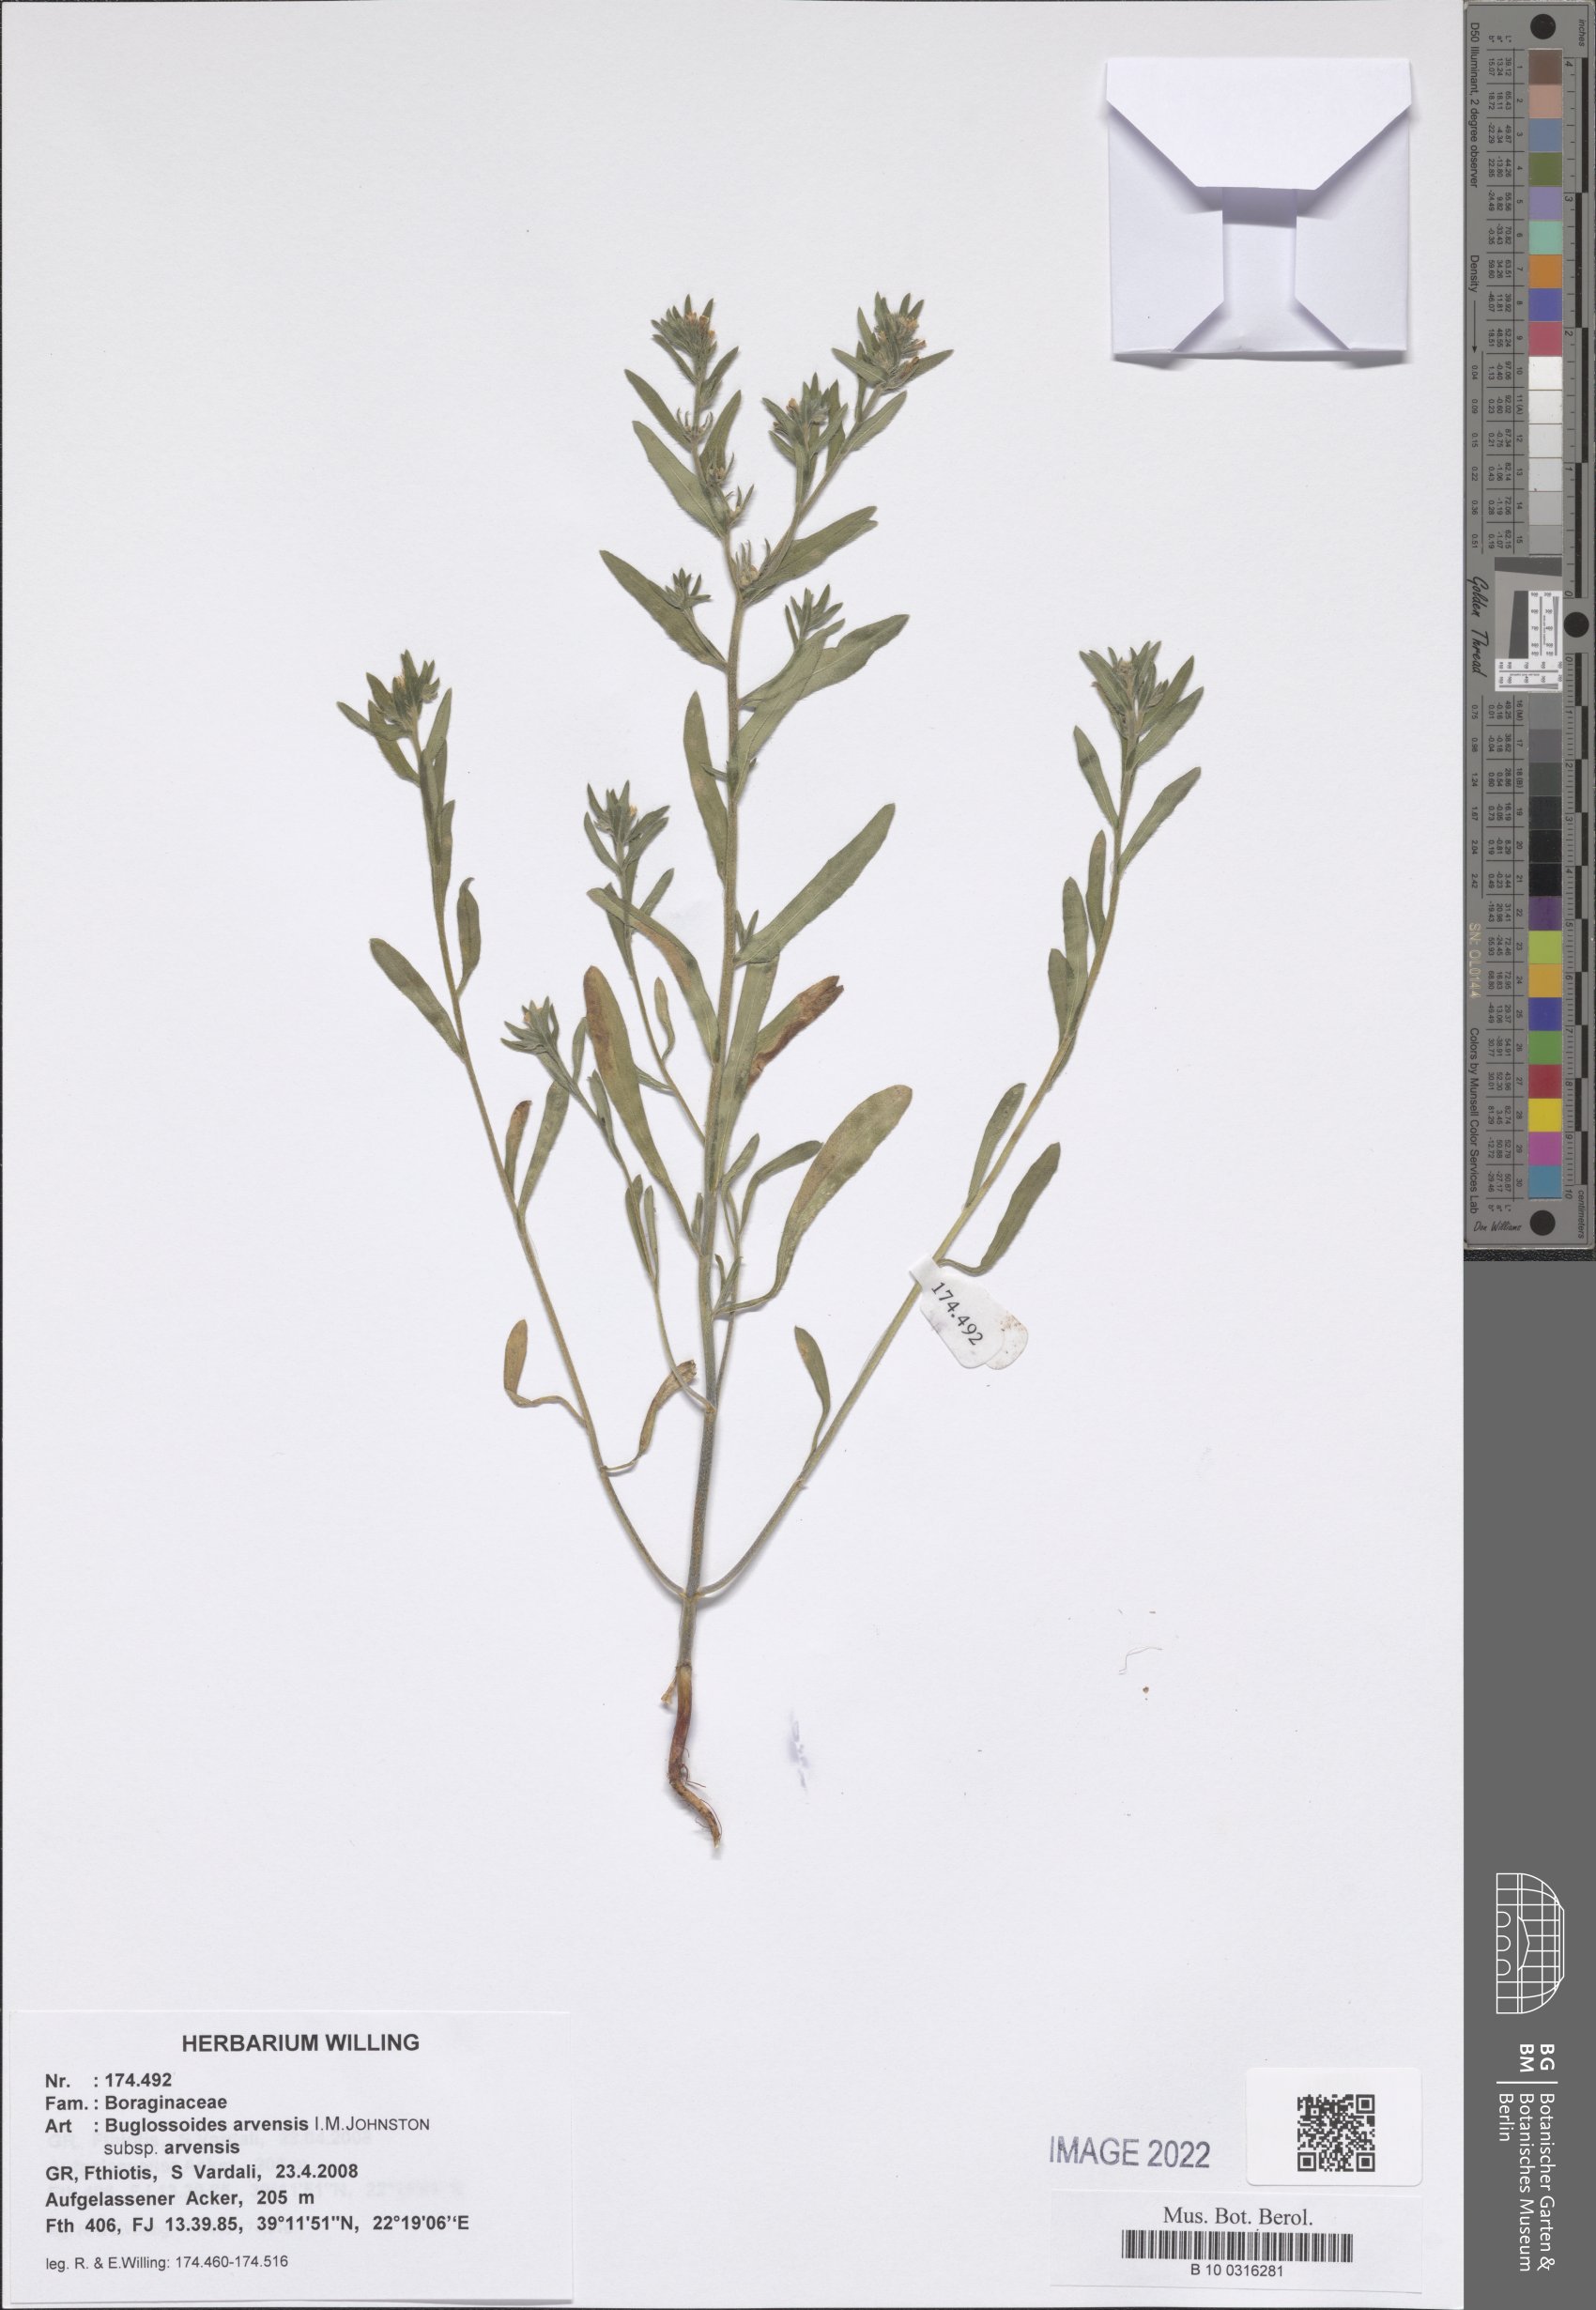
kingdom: Plantae
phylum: Tracheophyta
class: Magnoliopsida
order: Boraginales
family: Boraginaceae
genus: Buglossoides
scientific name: Buglossoides arvensis
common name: Corn gromwell
